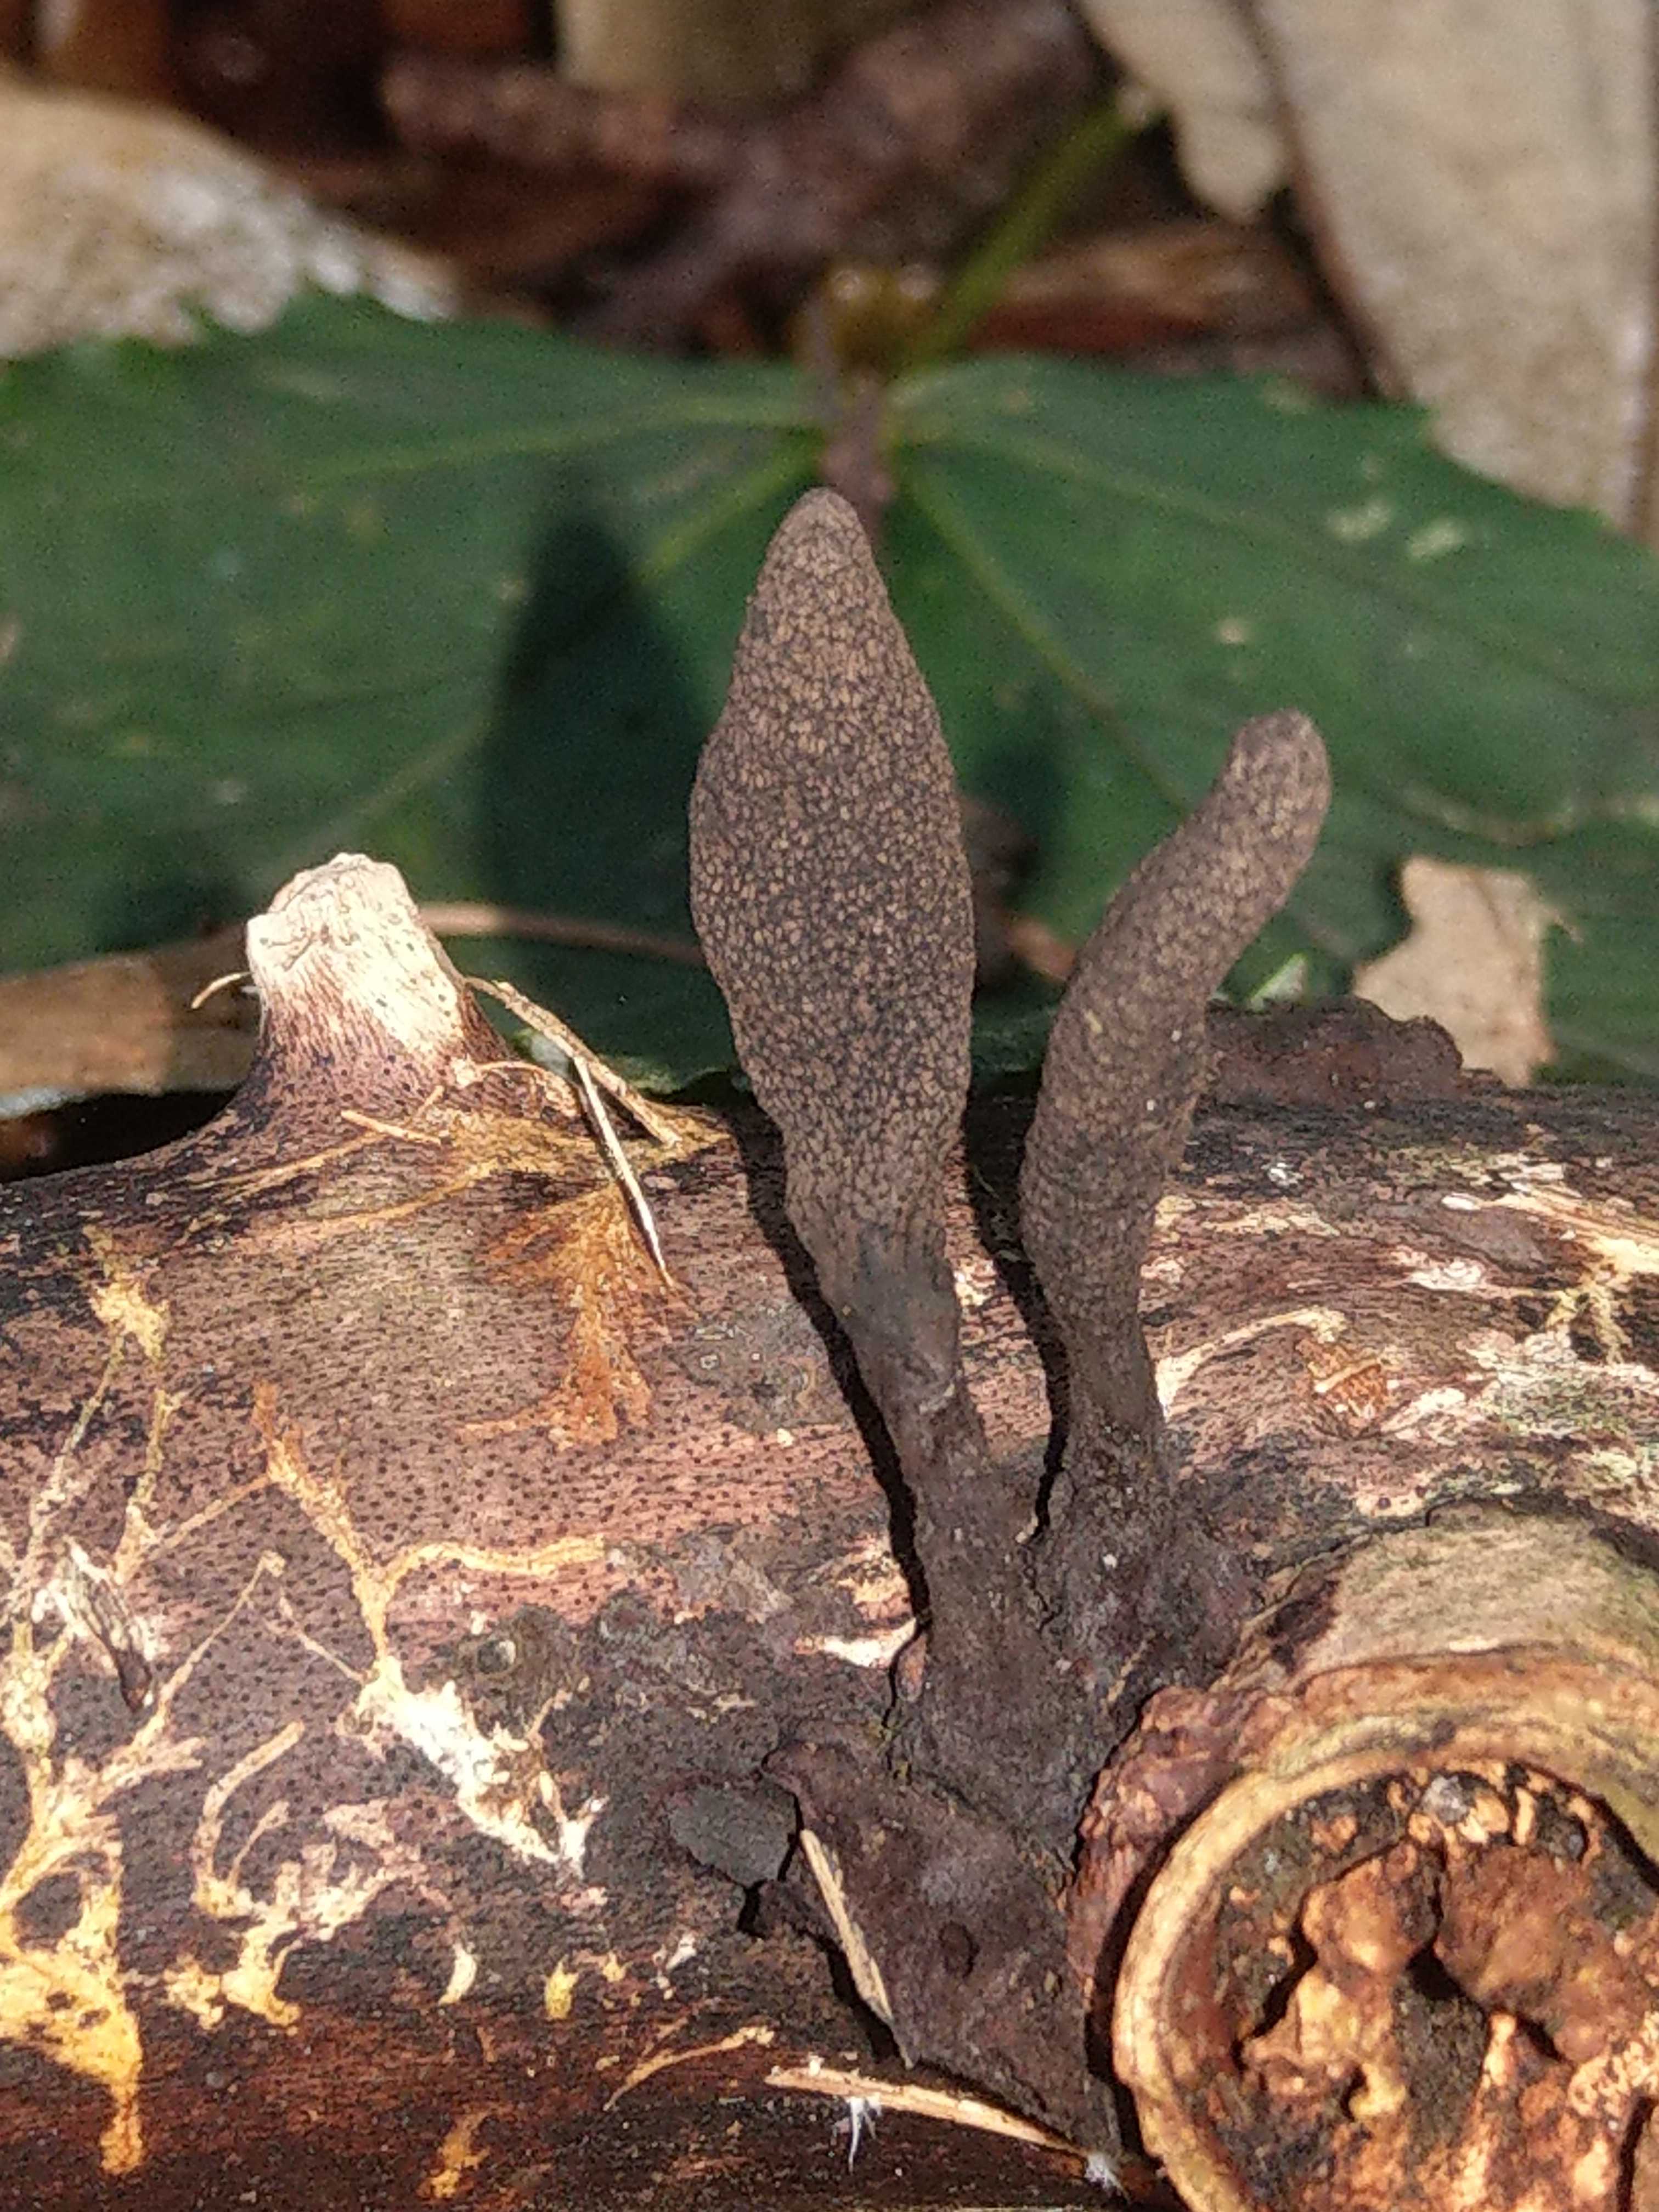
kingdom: Fungi
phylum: Ascomycota
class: Sordariomycetes
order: Xylariales
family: Xylariaceae
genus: Xylaria
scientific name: Xylaria longipes
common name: slank stødsvamp
